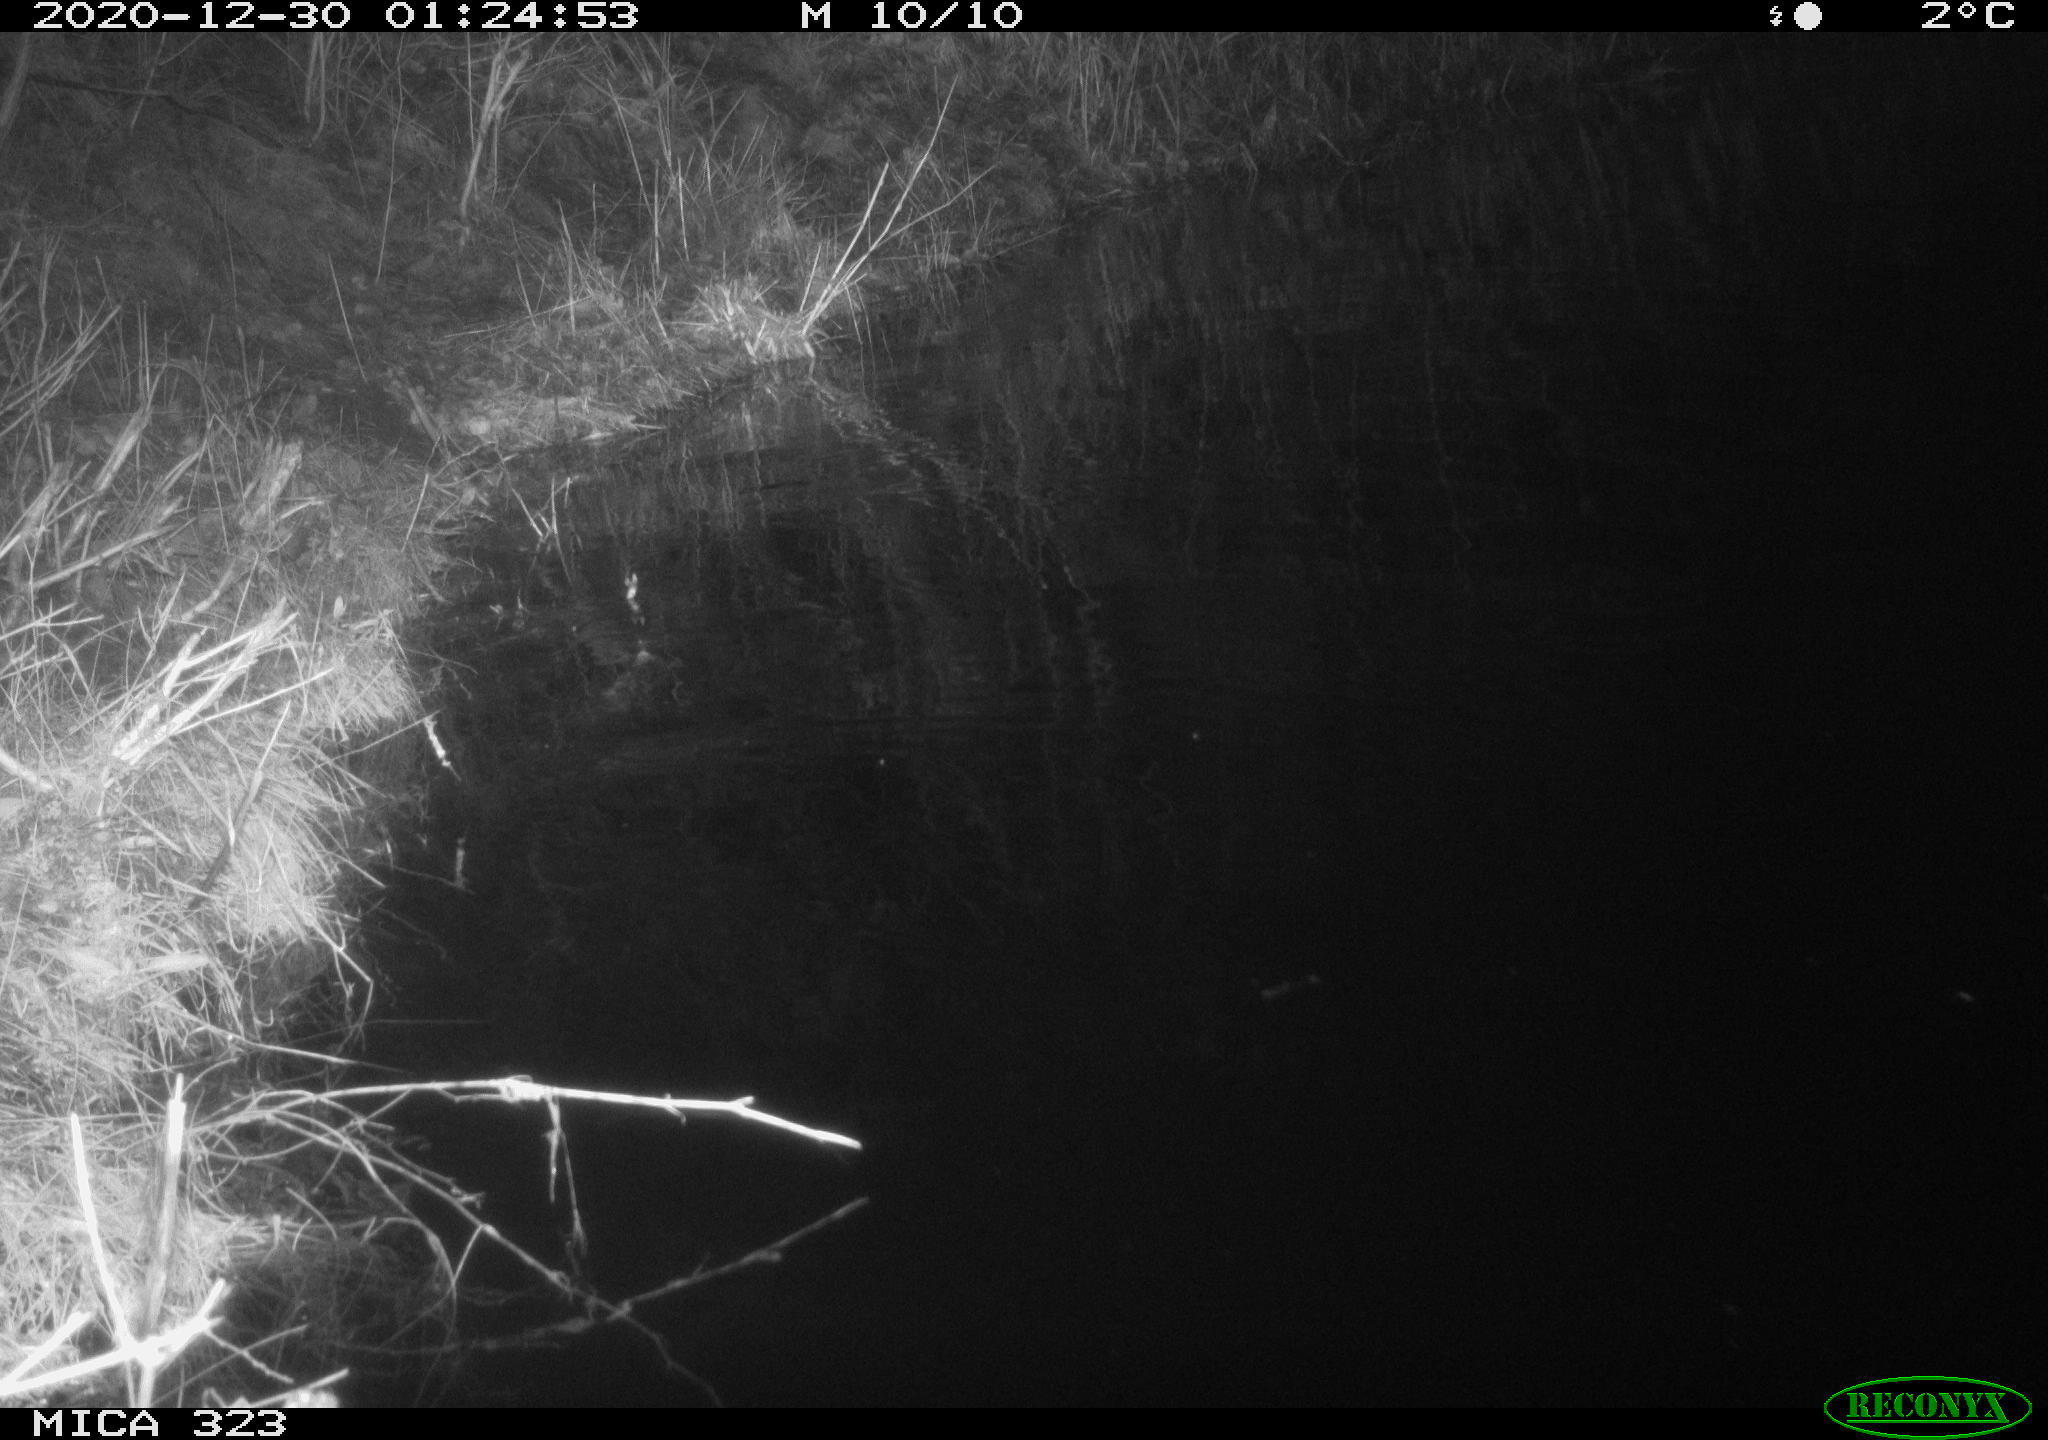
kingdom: Animalia
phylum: Chordata
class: Mammalia
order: Rodentia
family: Myocastoridae
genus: Myocastor
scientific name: Myocastor coypus
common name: Coypu
